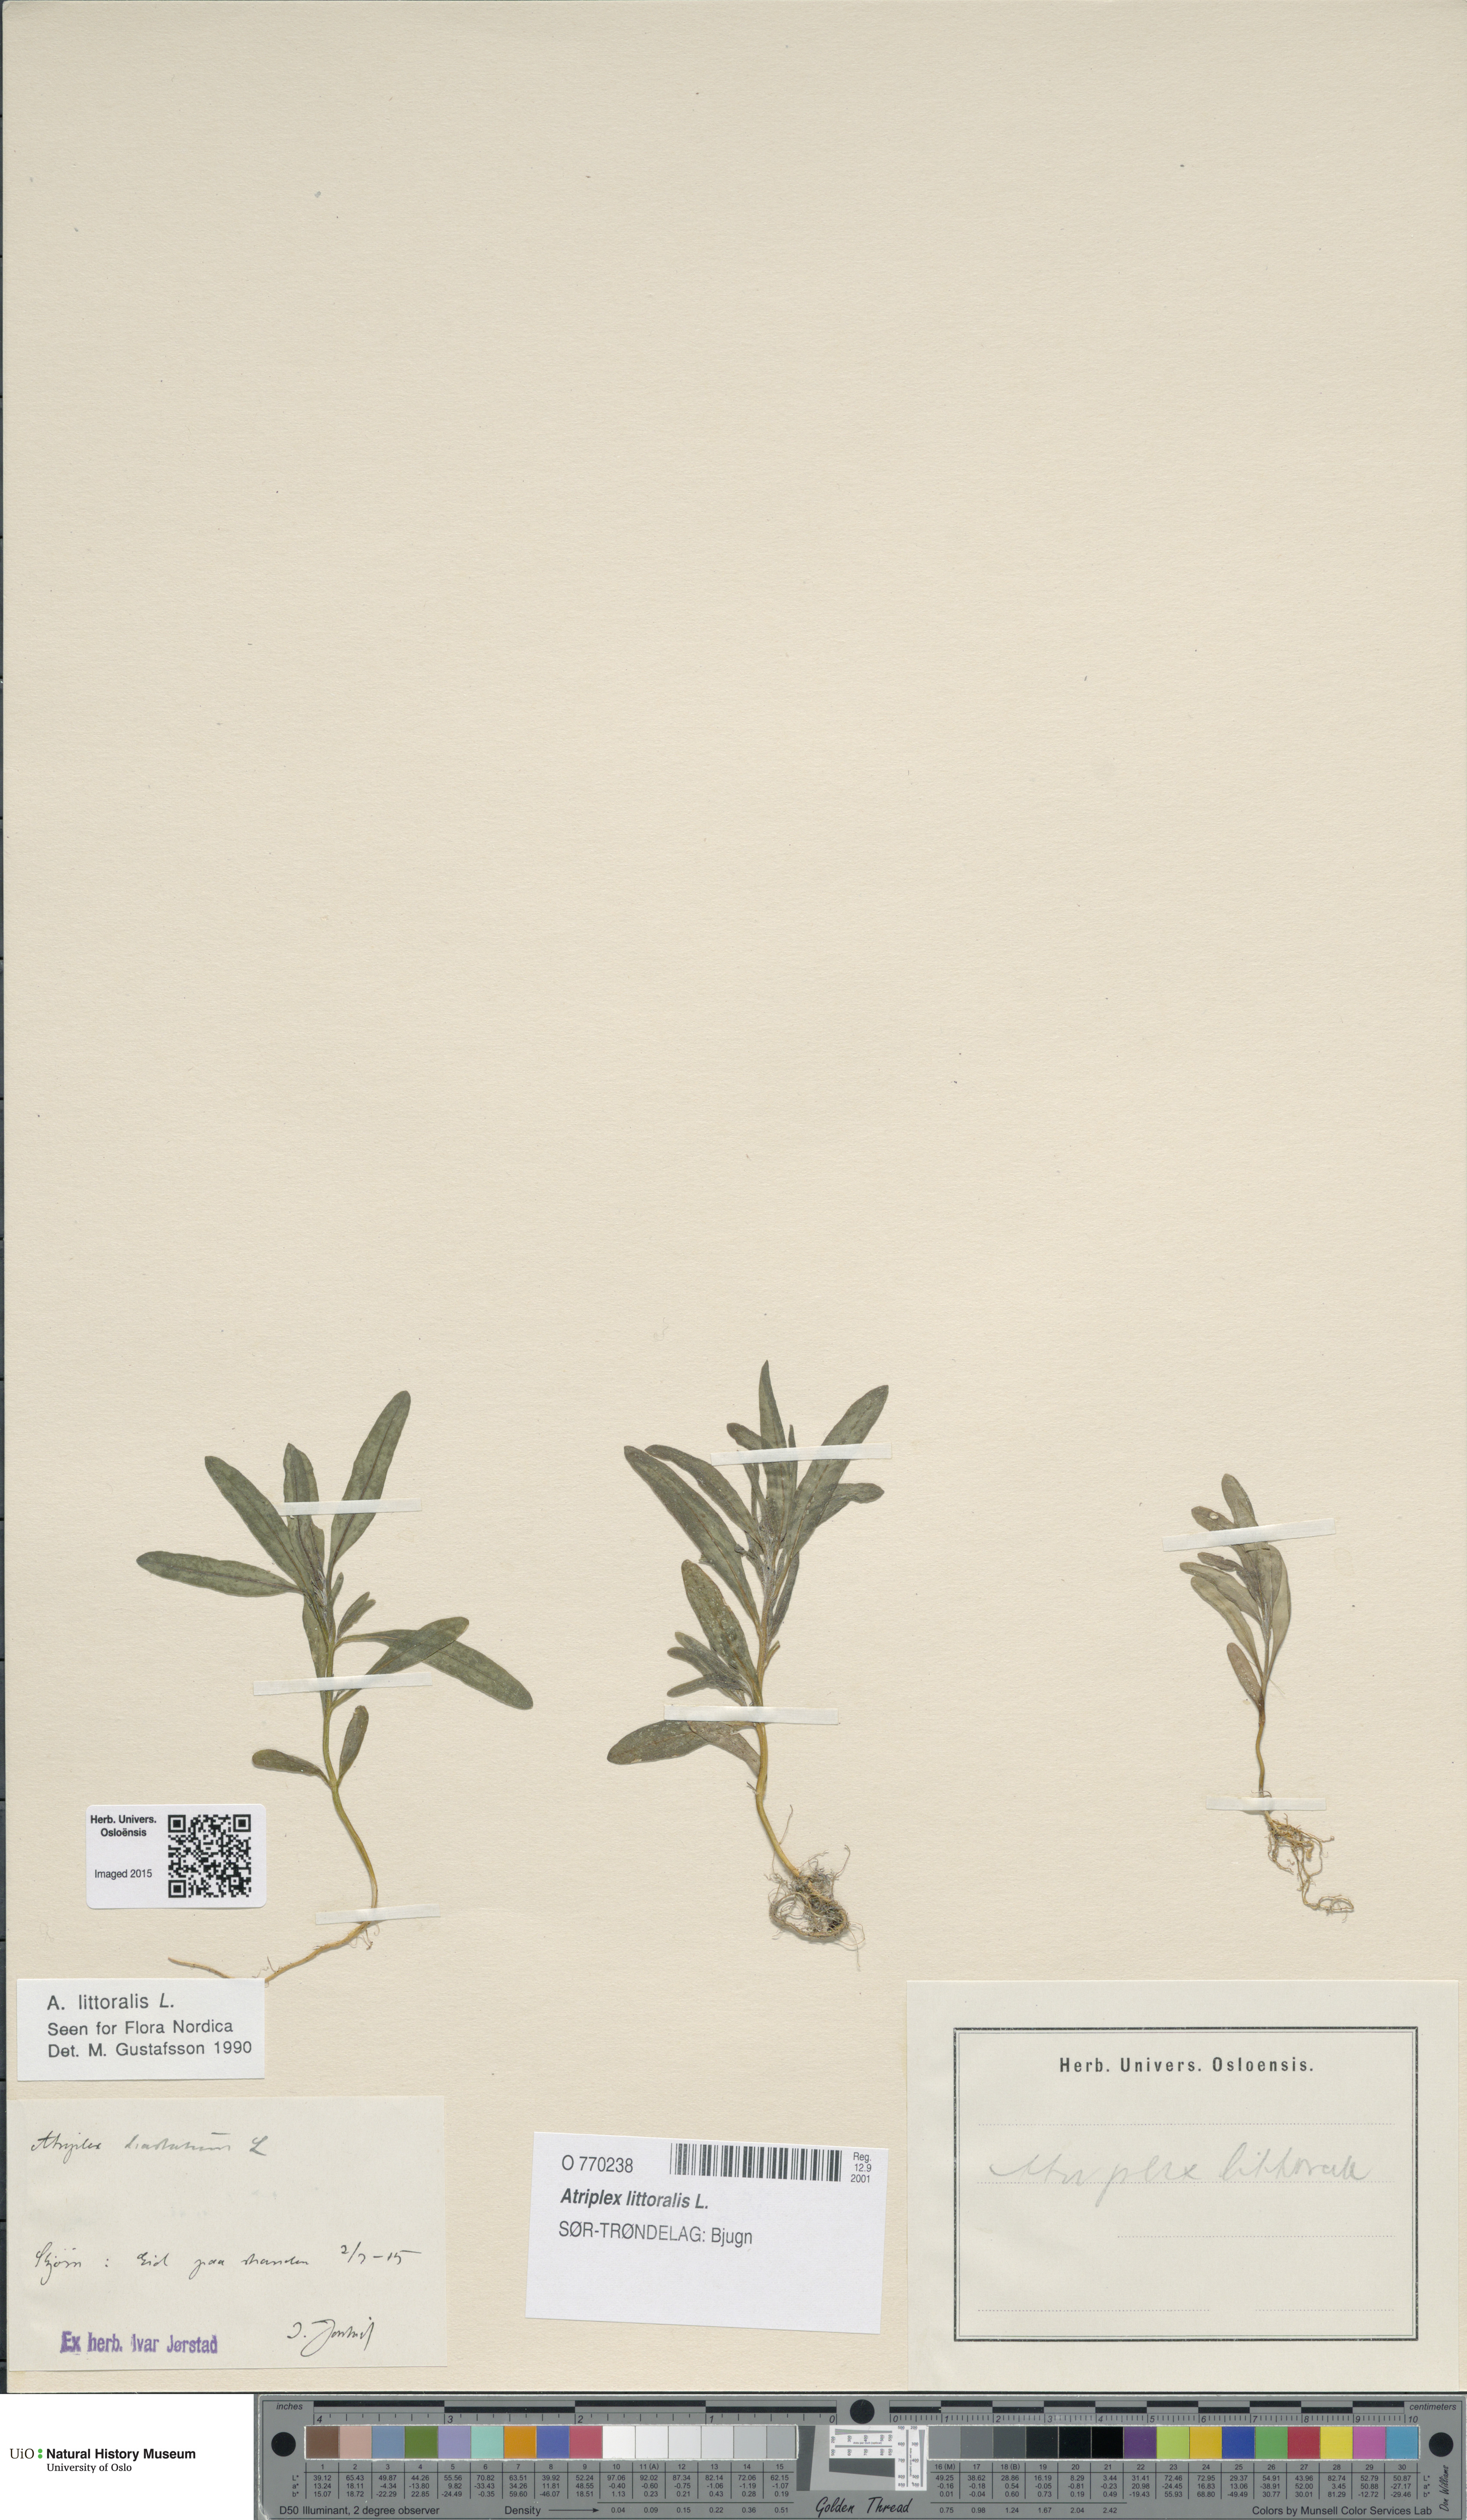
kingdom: Plantae
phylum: Tracheophyta
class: Magnoliopsida
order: Caryophyllales
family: Amaranthaceae
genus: Atriplex
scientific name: Atriplex littoralis
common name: Grass-leaved orache
